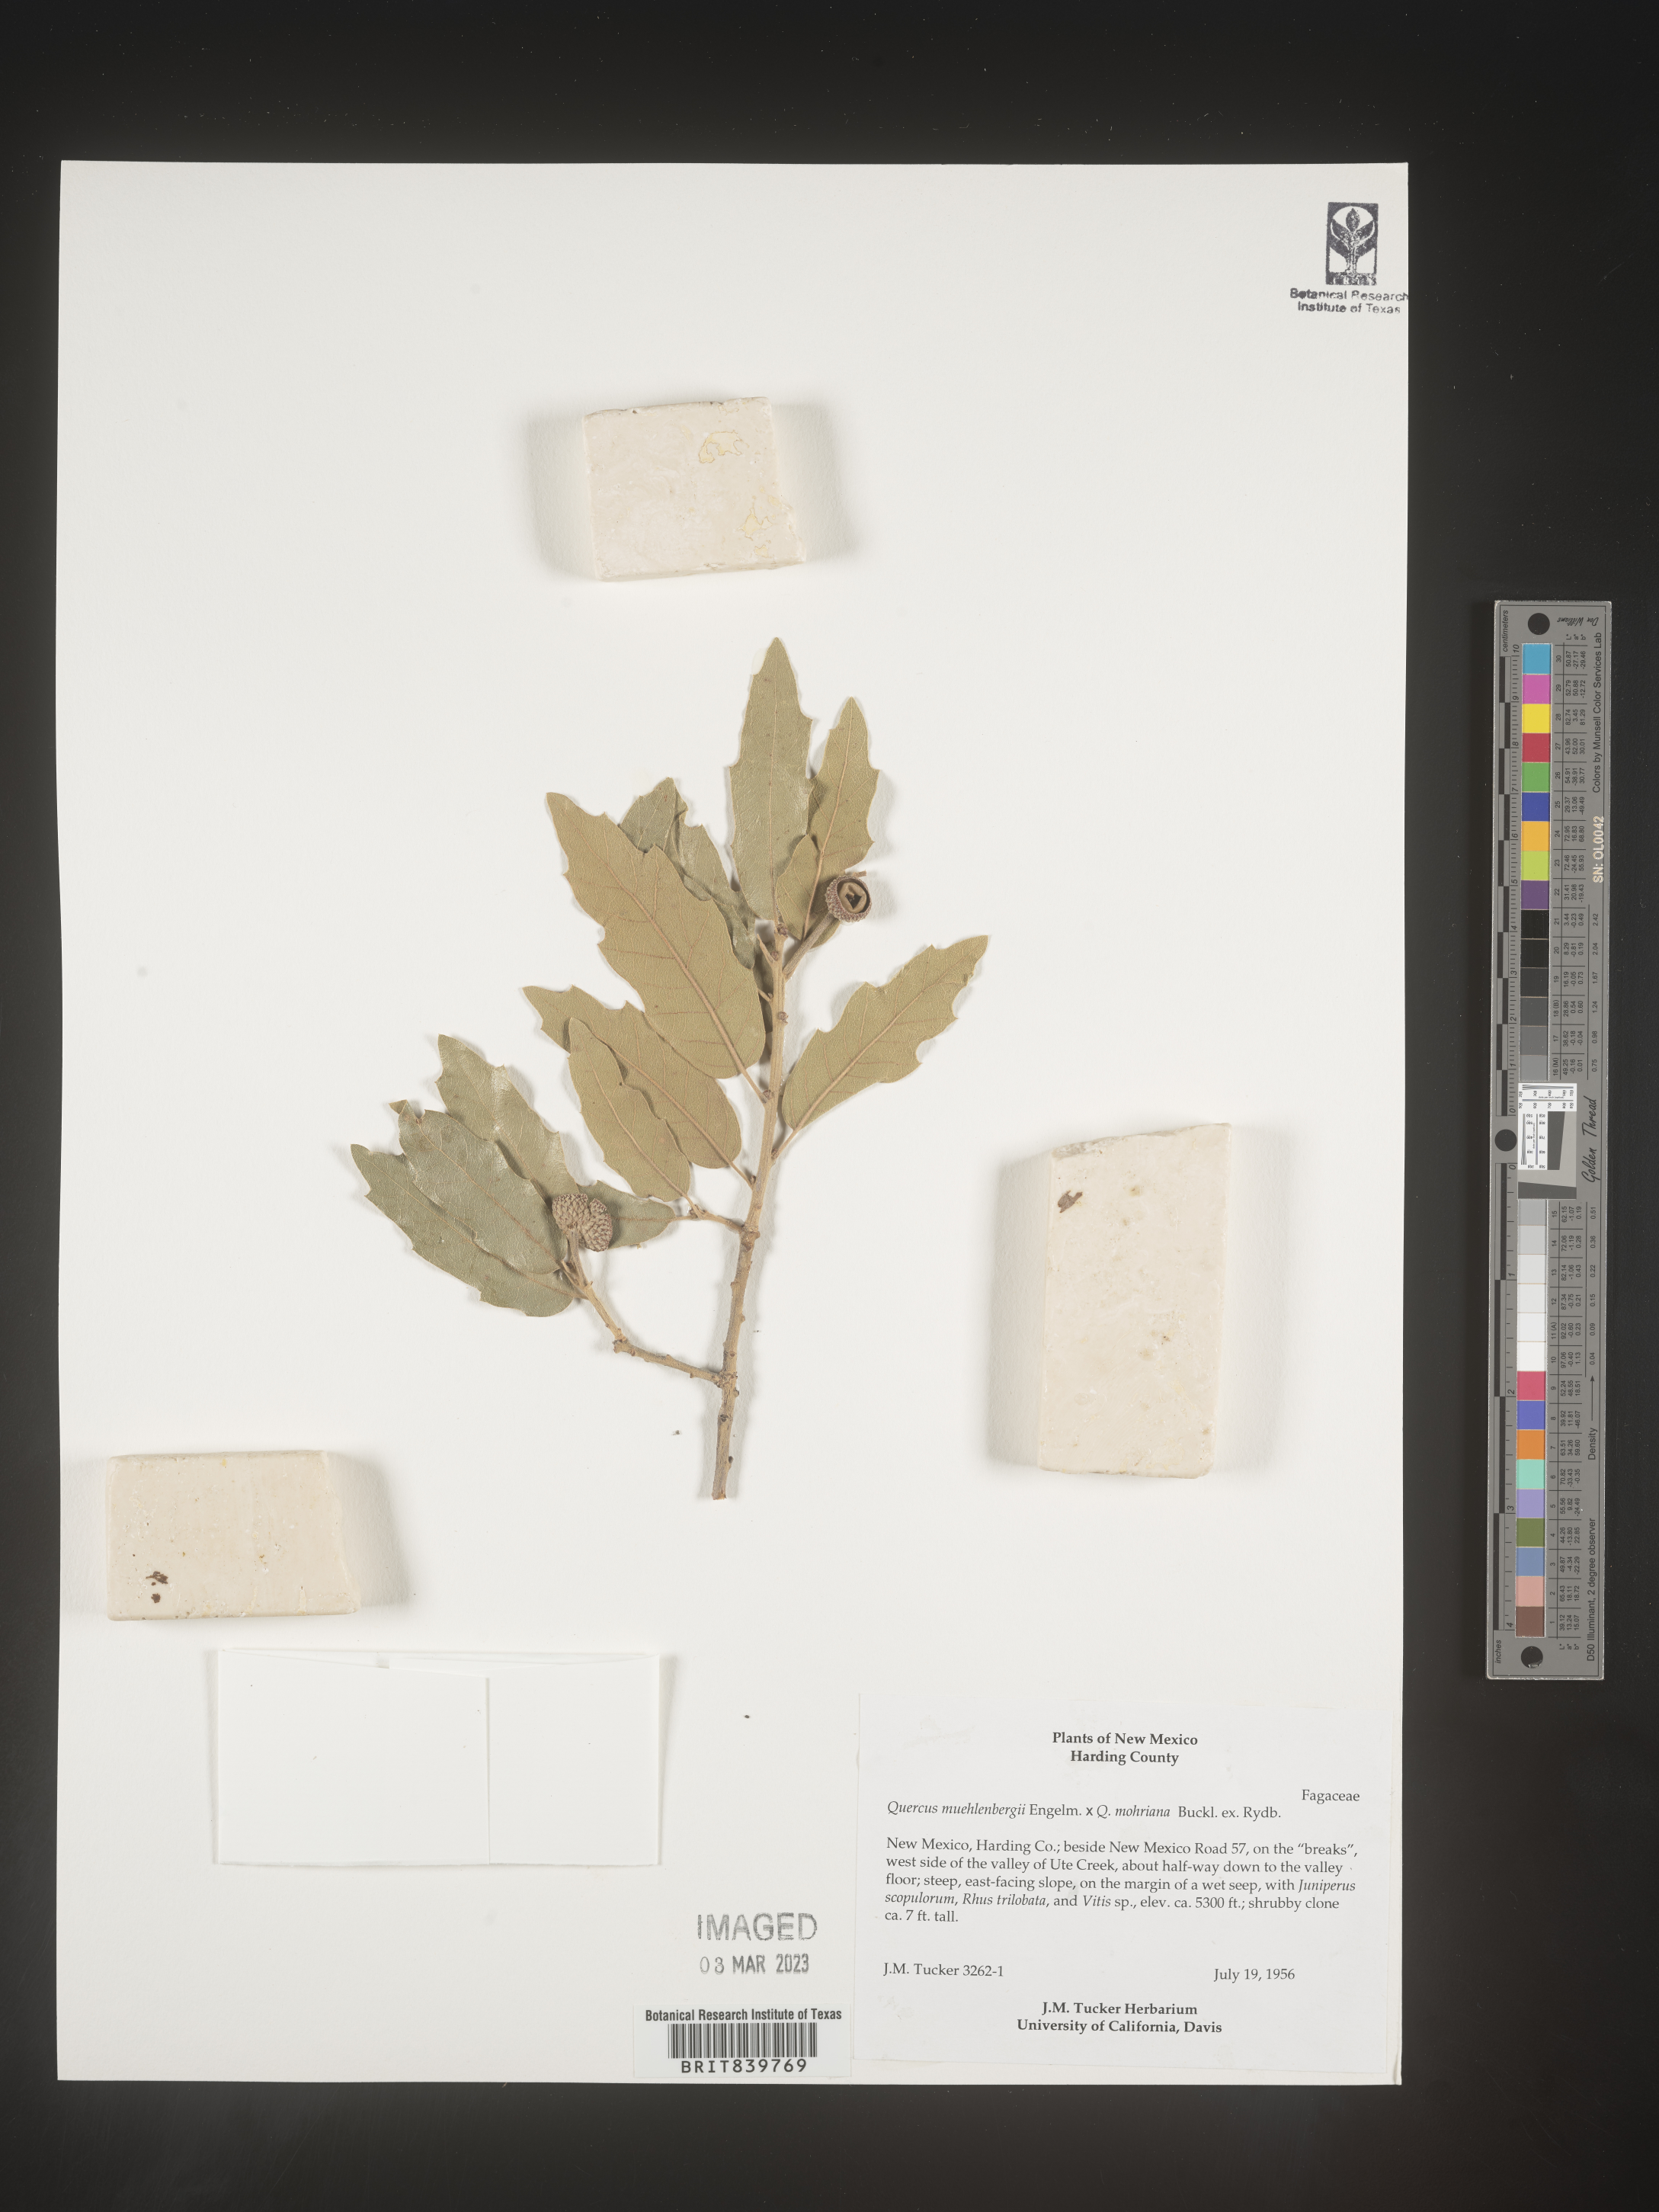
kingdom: Plantae
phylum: Tracheophyta
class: Magnoliopsida
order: Fagales
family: Fagaceae
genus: Quercus
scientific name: Quercus muehlenbergii
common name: Chinkapin oak
